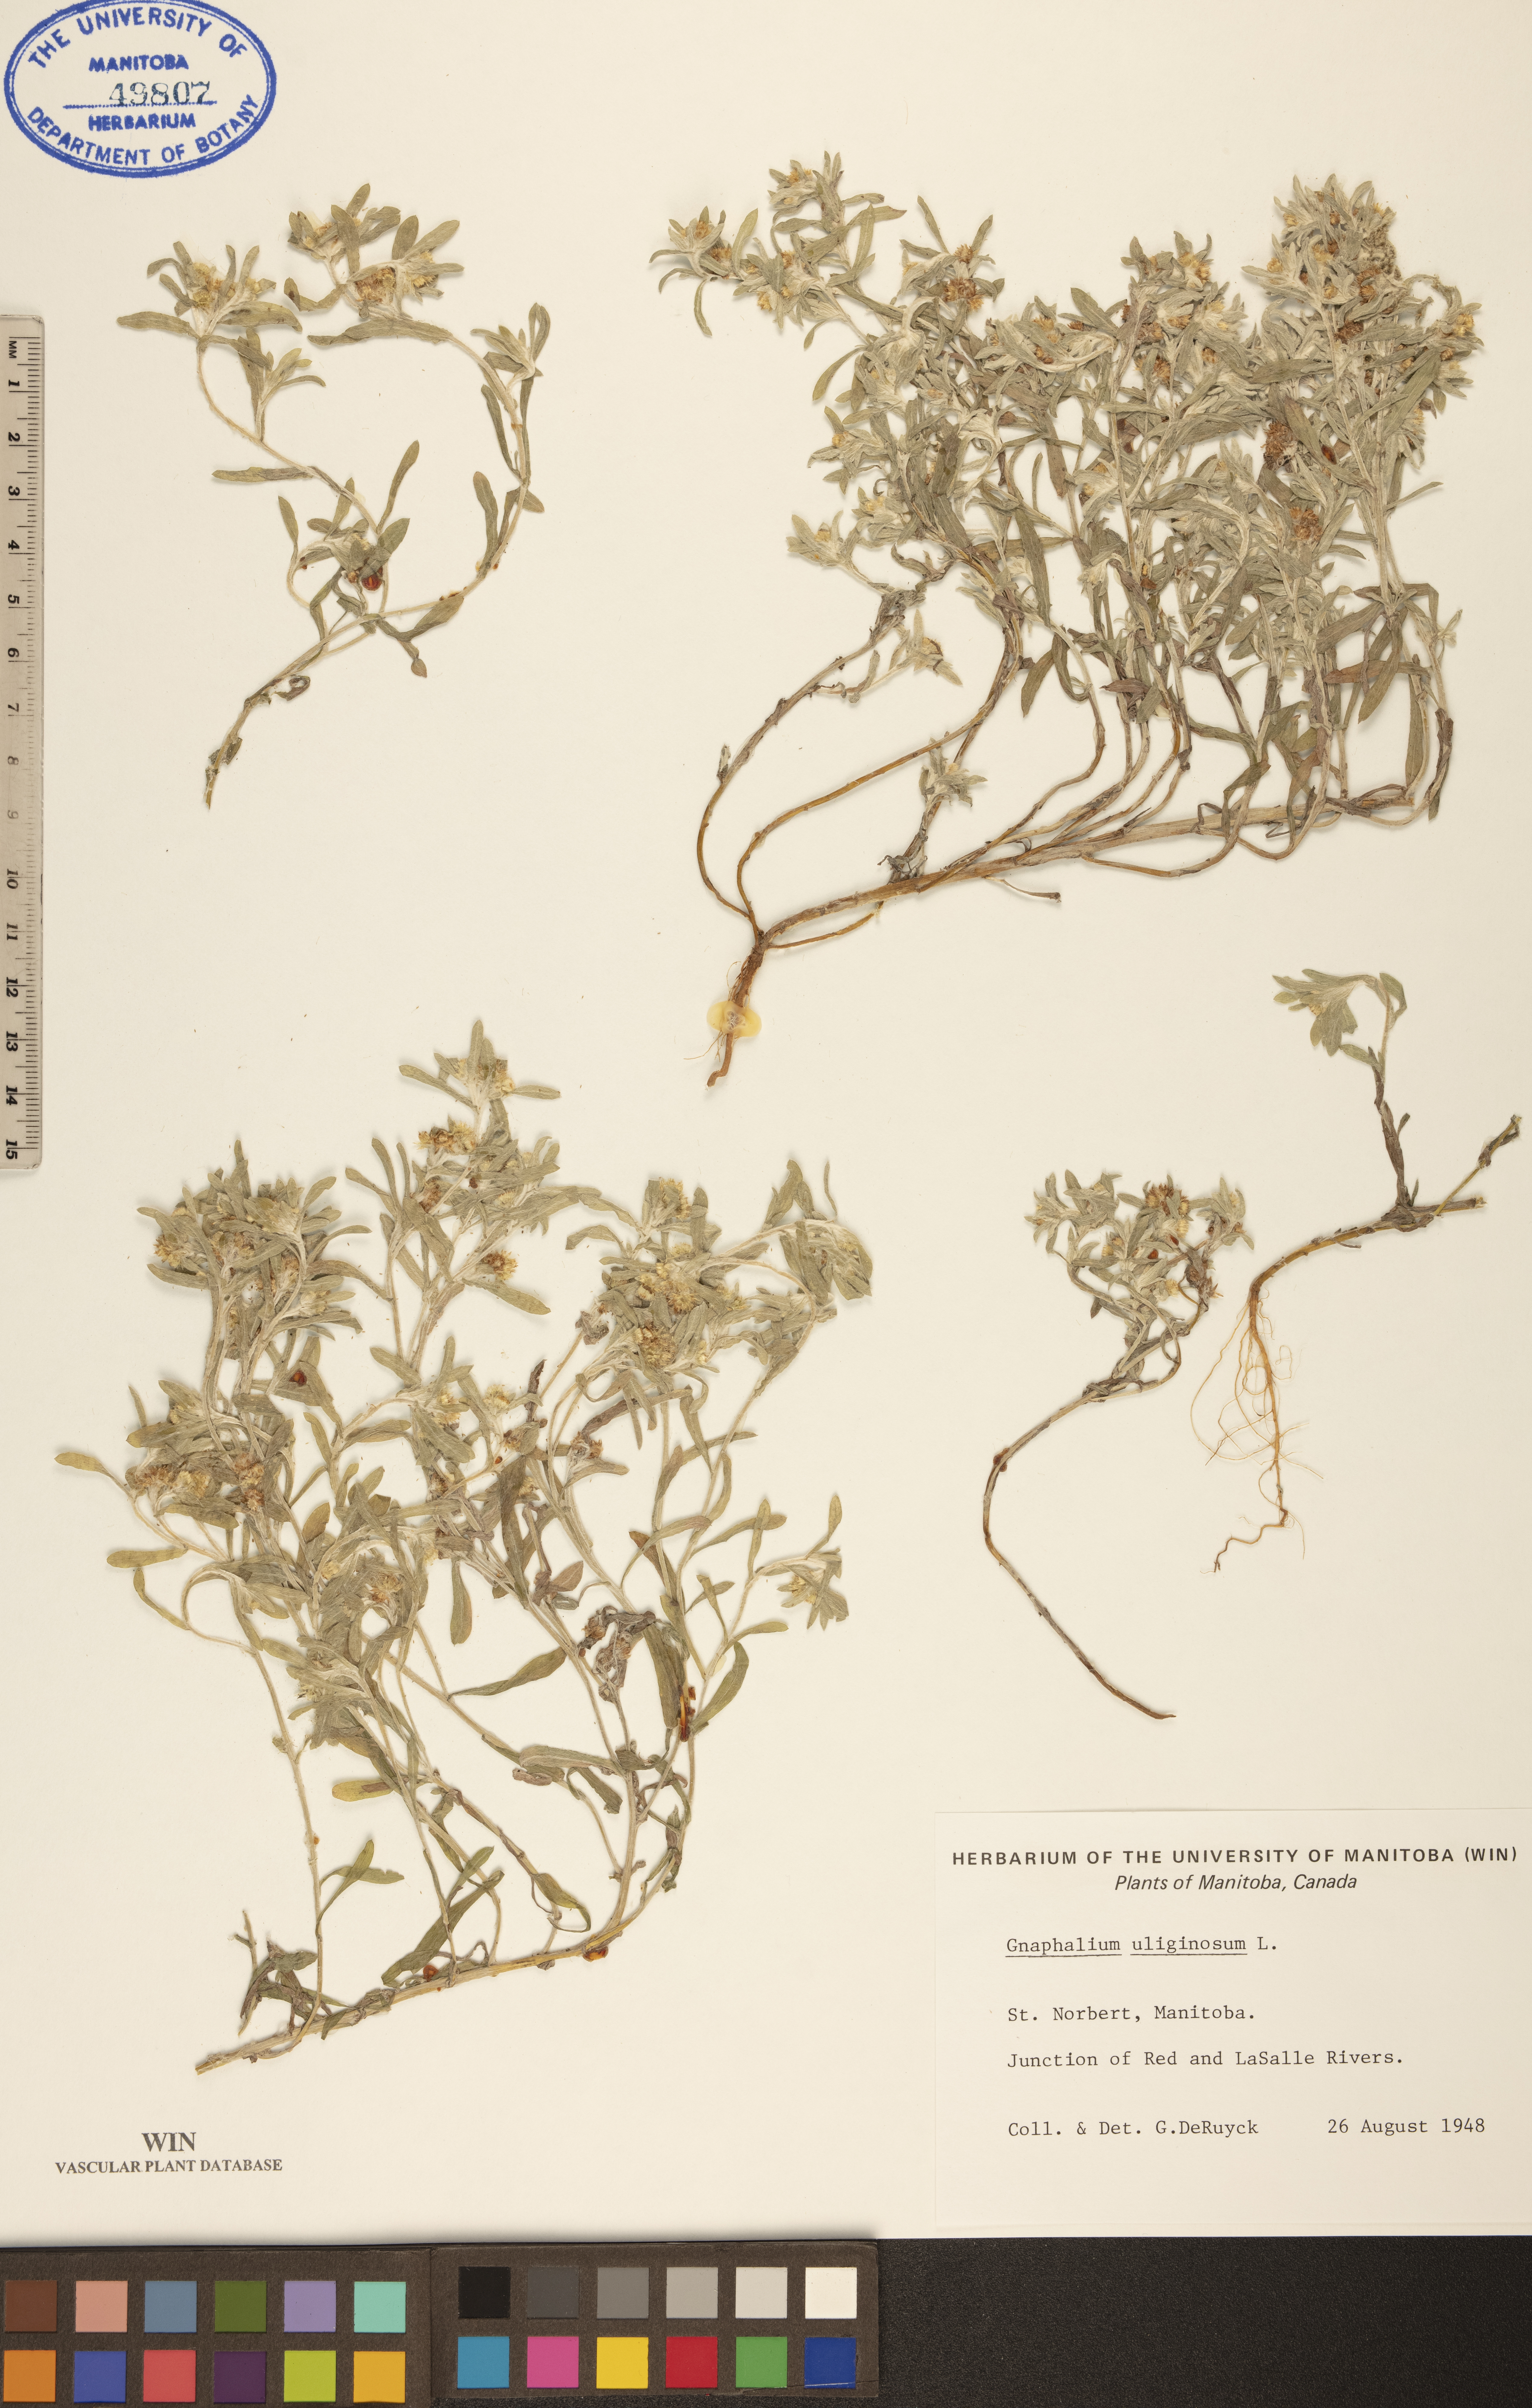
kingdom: Plantae
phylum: Tracheophyta
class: Magnoliopsida
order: Asterales
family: Asteraceae
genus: Gnaphalium
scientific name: Gnaphalium uliginosum
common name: Marsh cudweed
